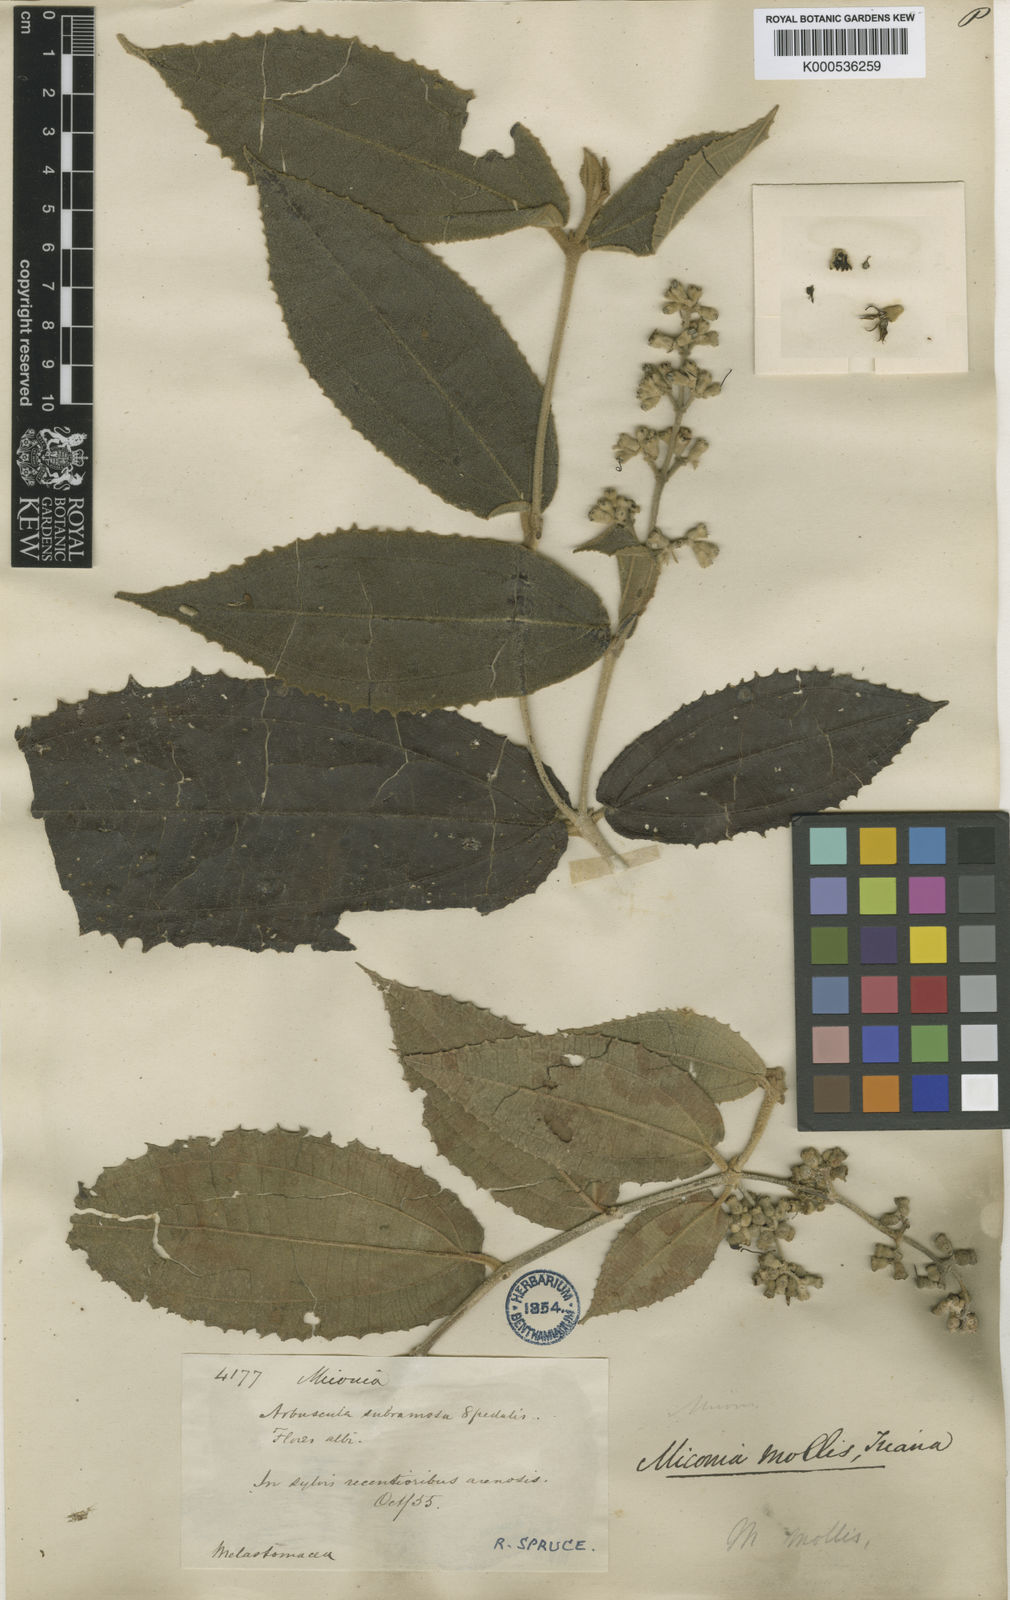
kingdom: Plantae
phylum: Tracheophyta
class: Magnoliopsida
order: Myrtales
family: Melastomataceae
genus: Miconia
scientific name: Miconia mollis
